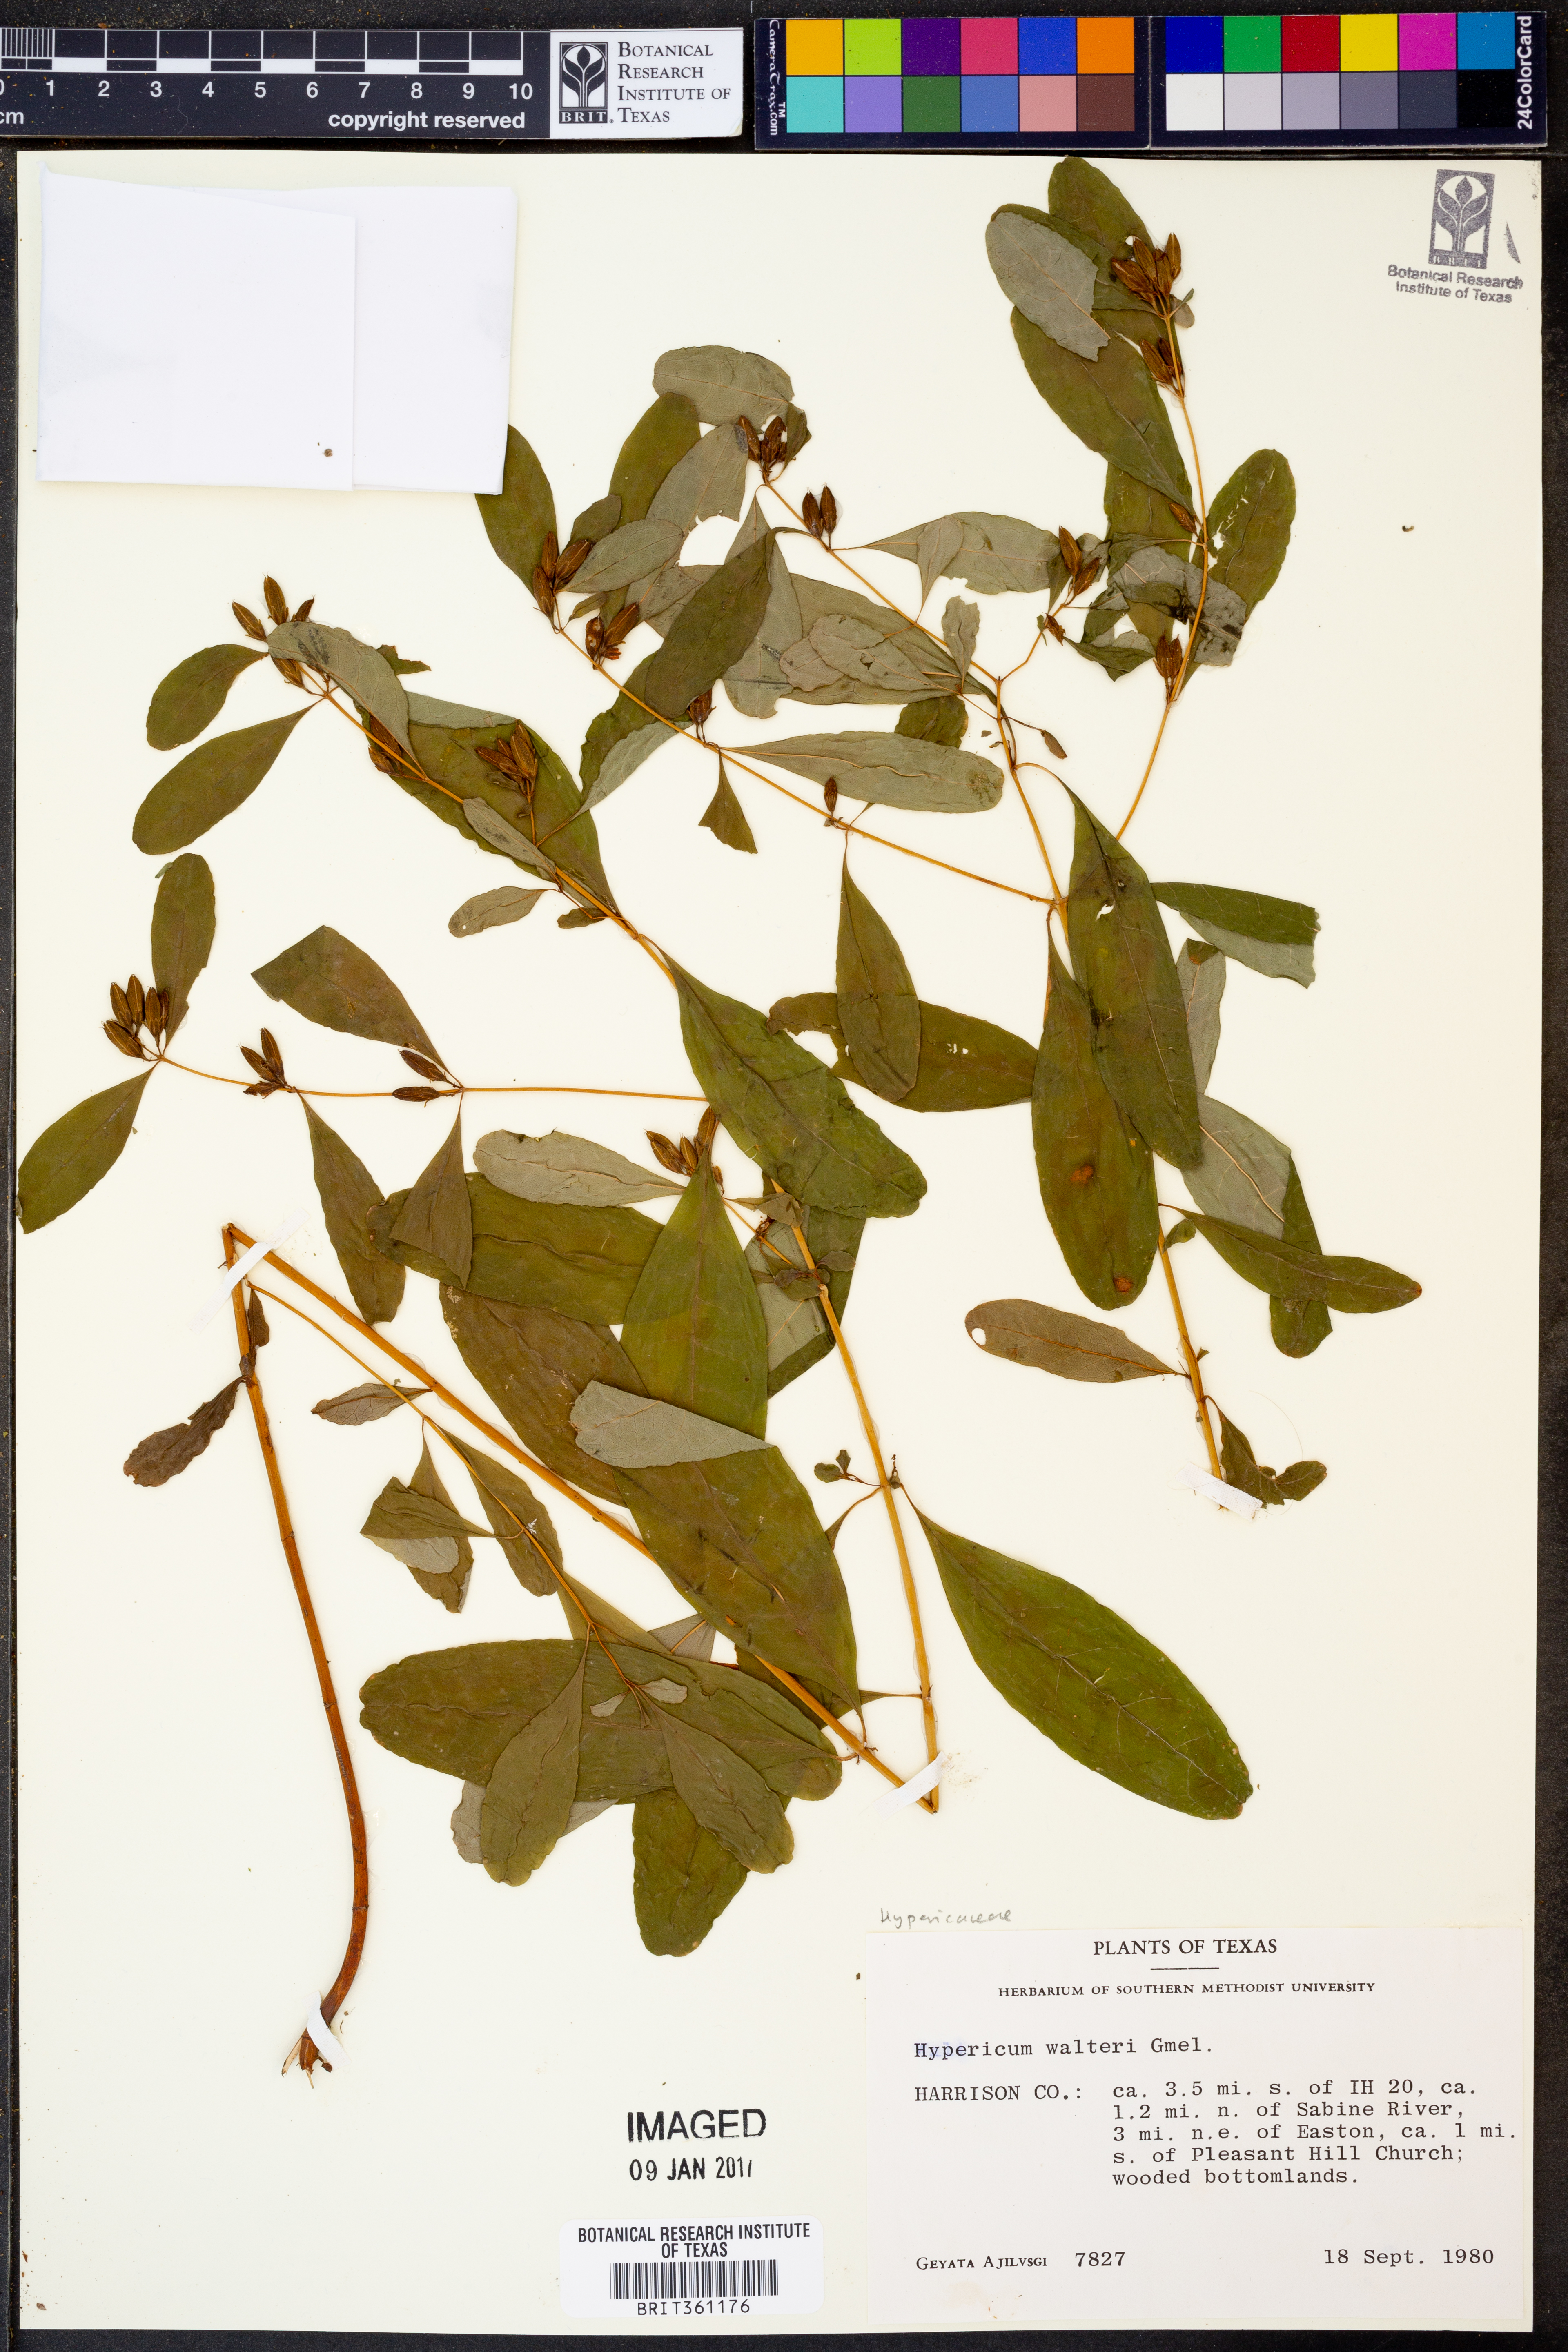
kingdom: Plantae
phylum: Tracheophyta
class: Magnoliopsida
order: Malpighiales
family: Hypericaceae
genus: Triadenum
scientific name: Triadenum walteri
